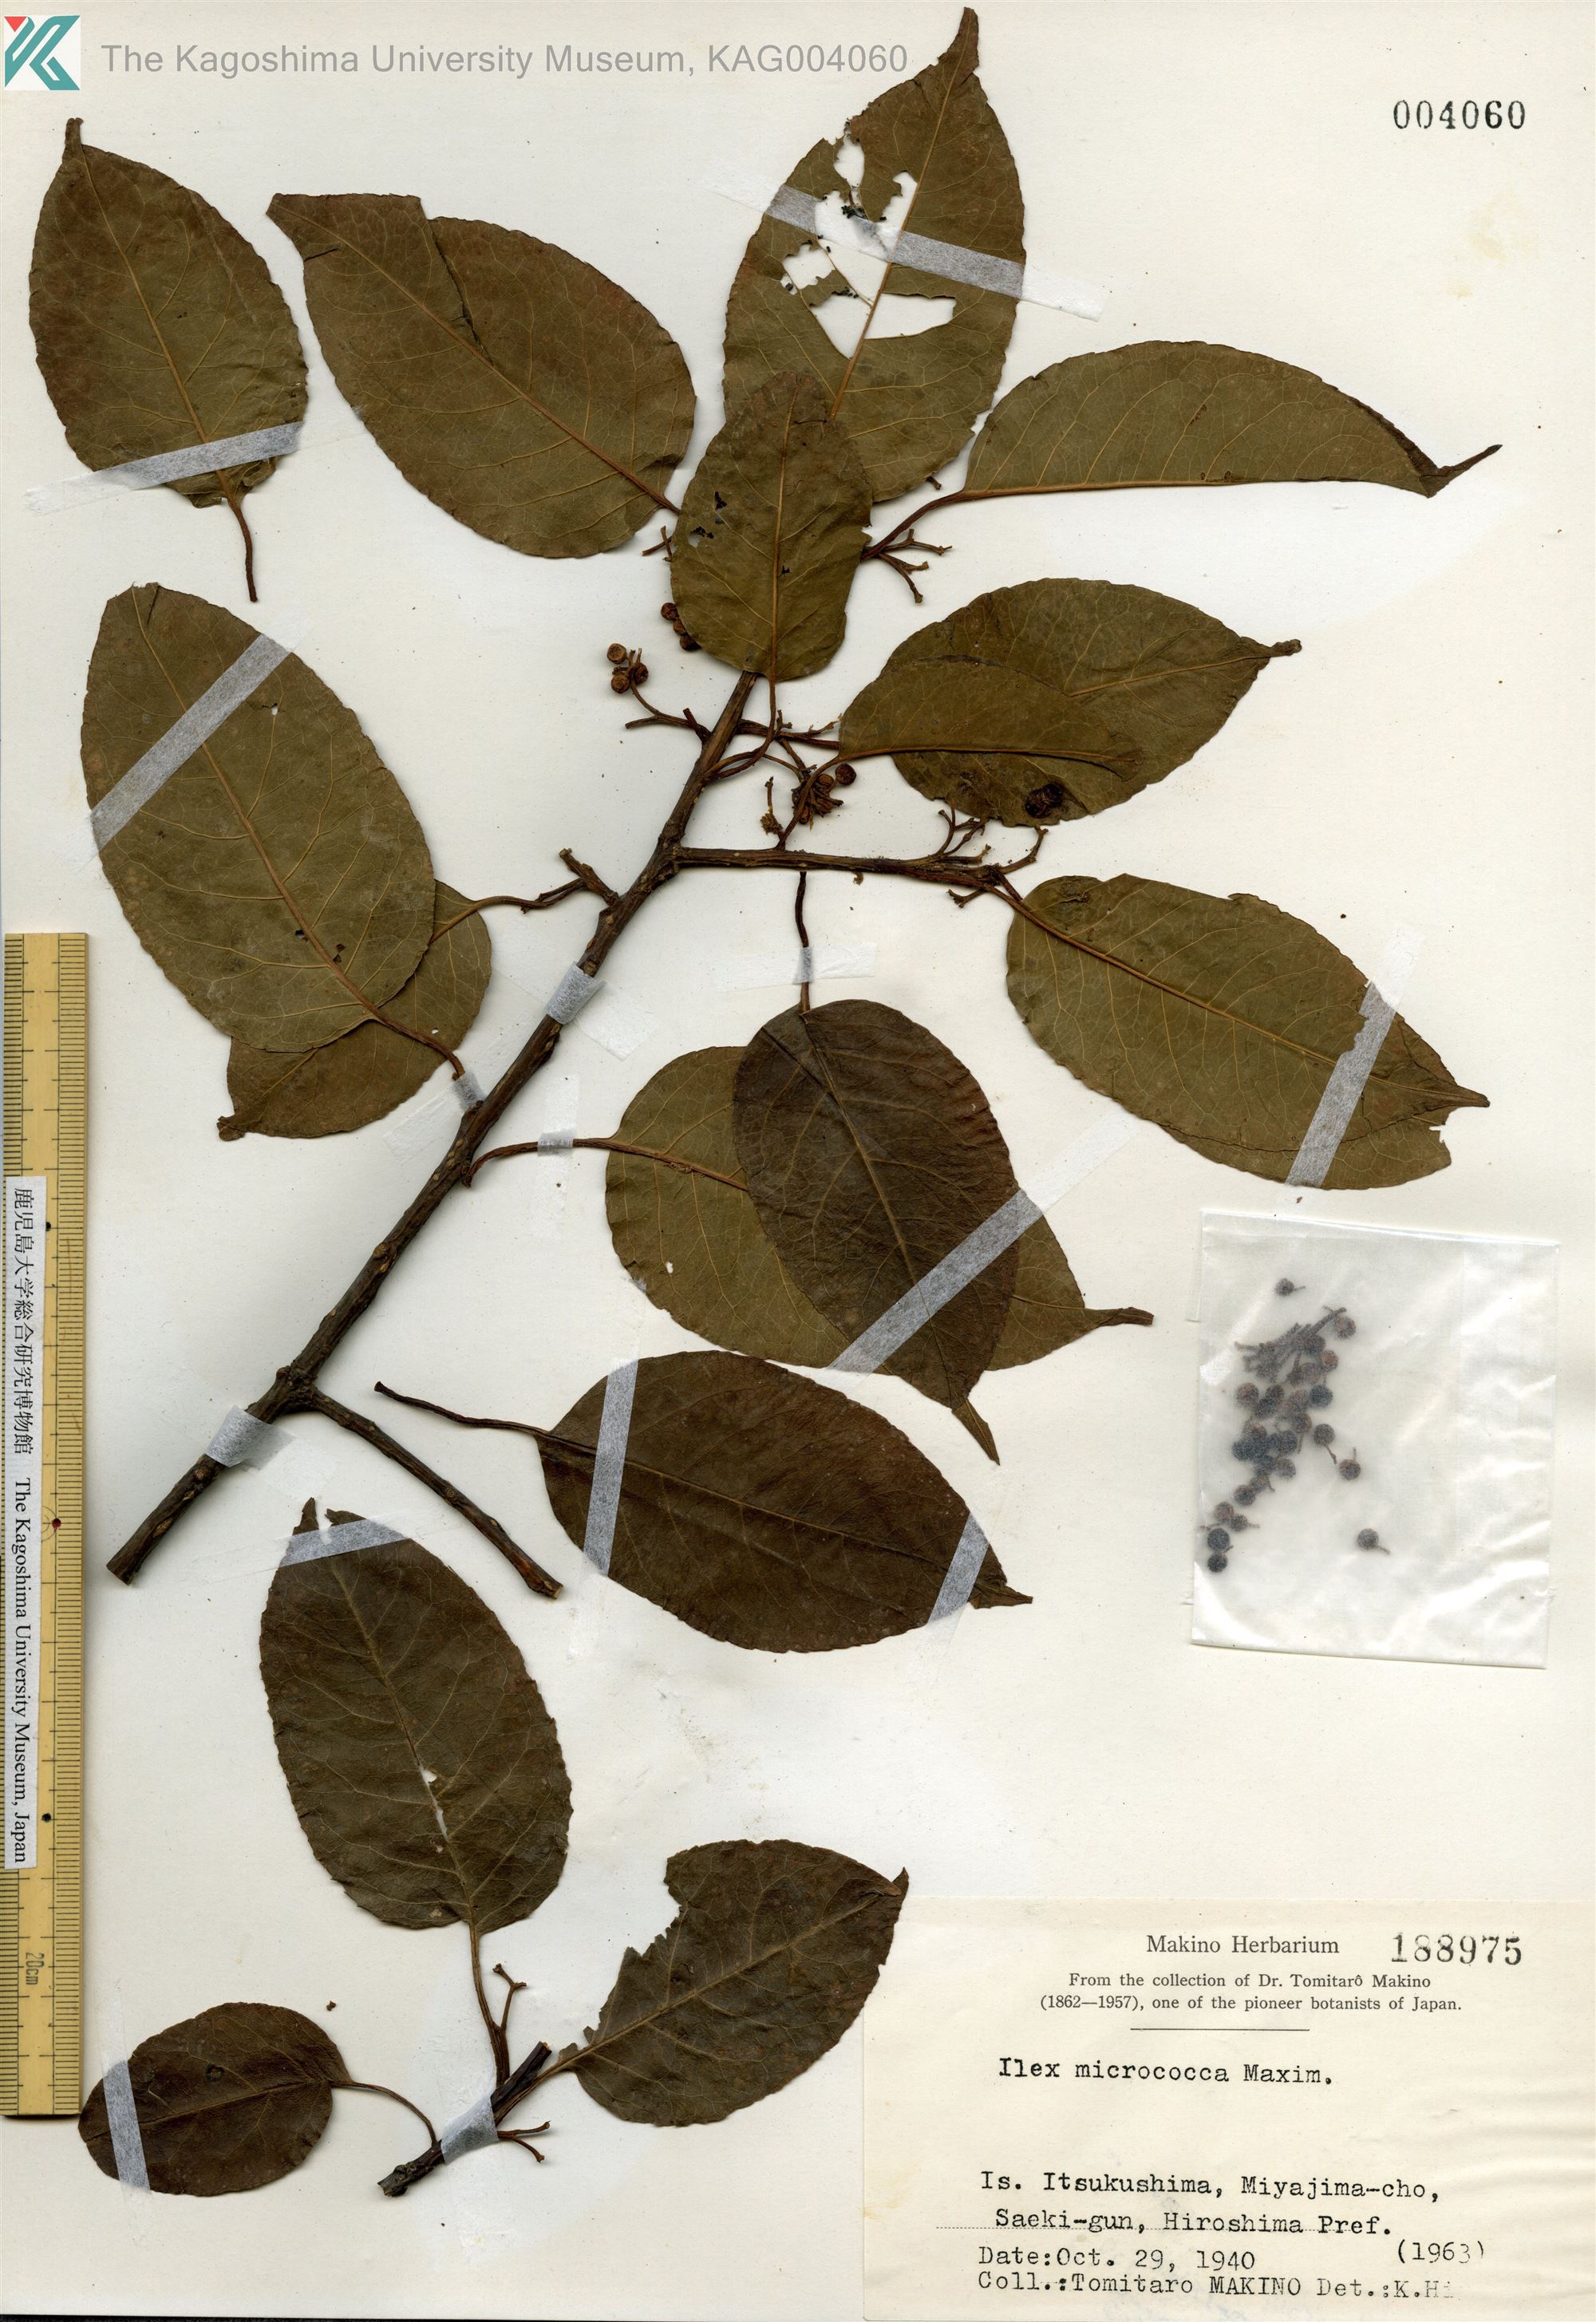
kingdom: Plantae
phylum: Tracheophyta
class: Magnoliopsida
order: Aquifoliales
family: Aquifoliaceae
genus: Ilex
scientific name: Ilex rotunda
